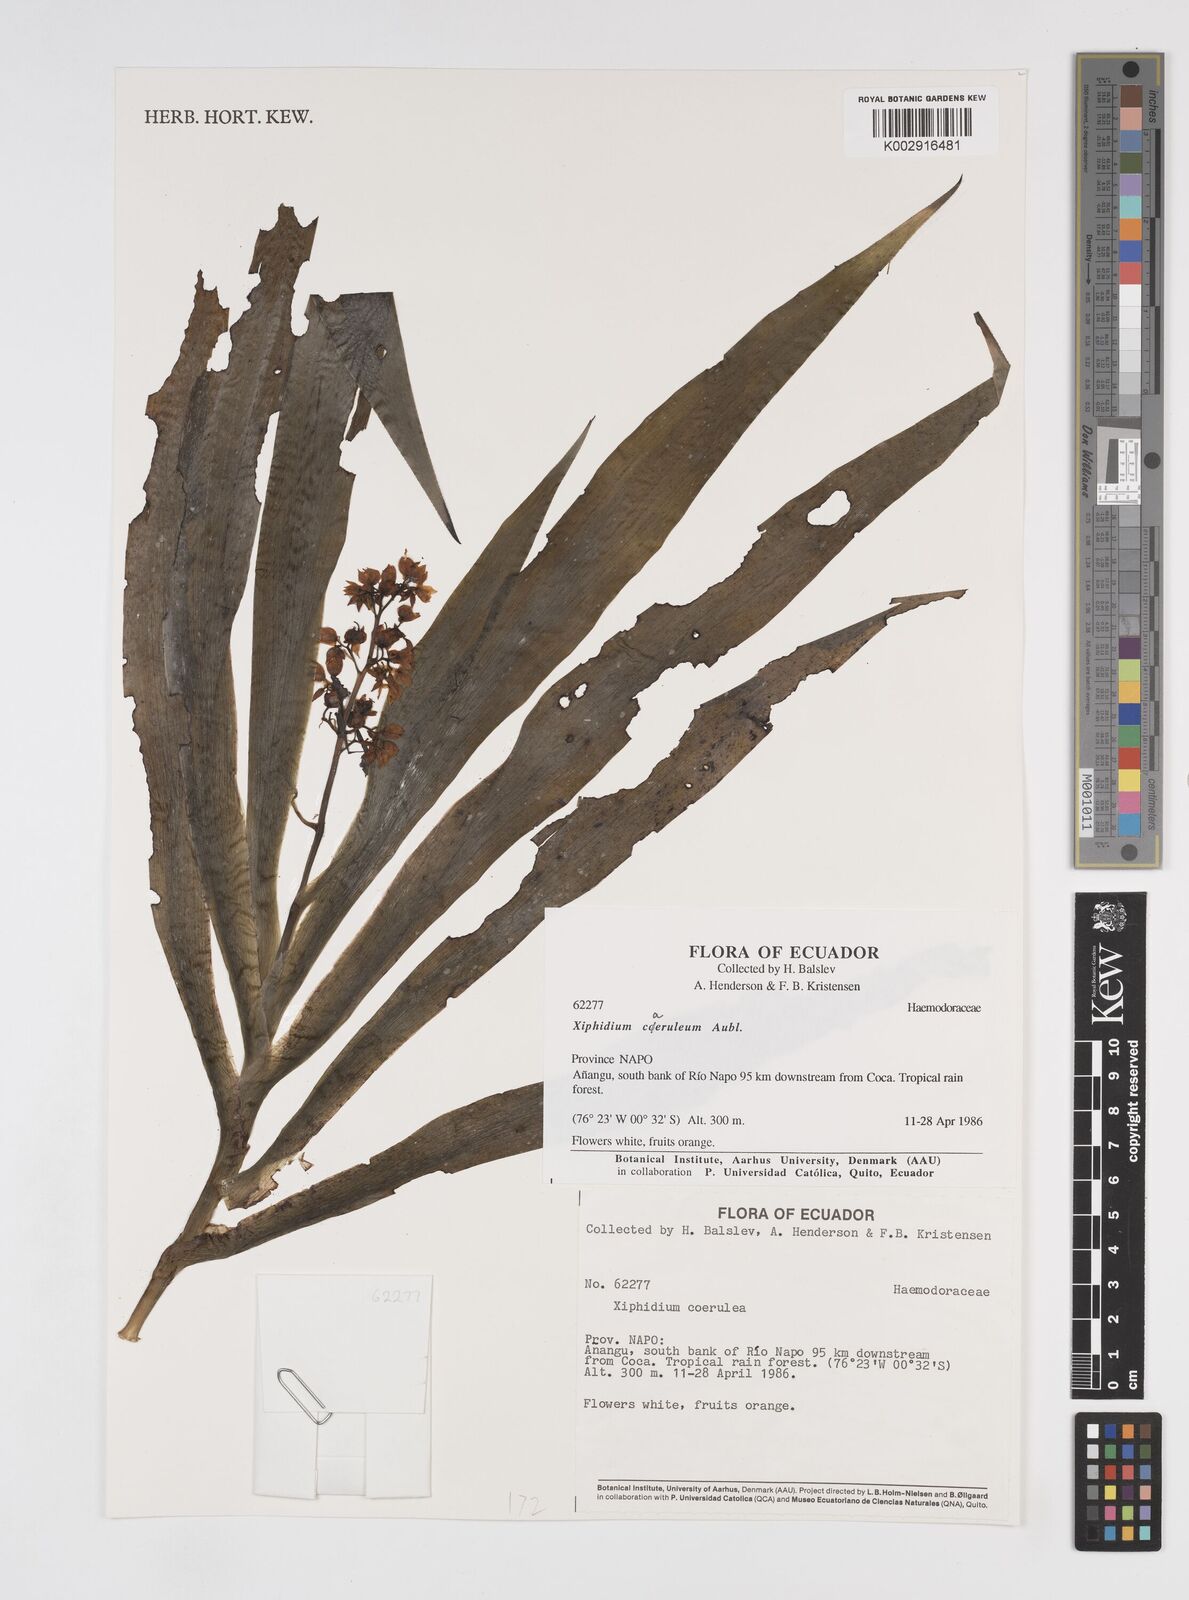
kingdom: Plantae
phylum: Tracheophyta
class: Liliopsida
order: Commelinales
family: Haemodoraceae
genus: Xiphidium
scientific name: Xiphidium caeruleum
